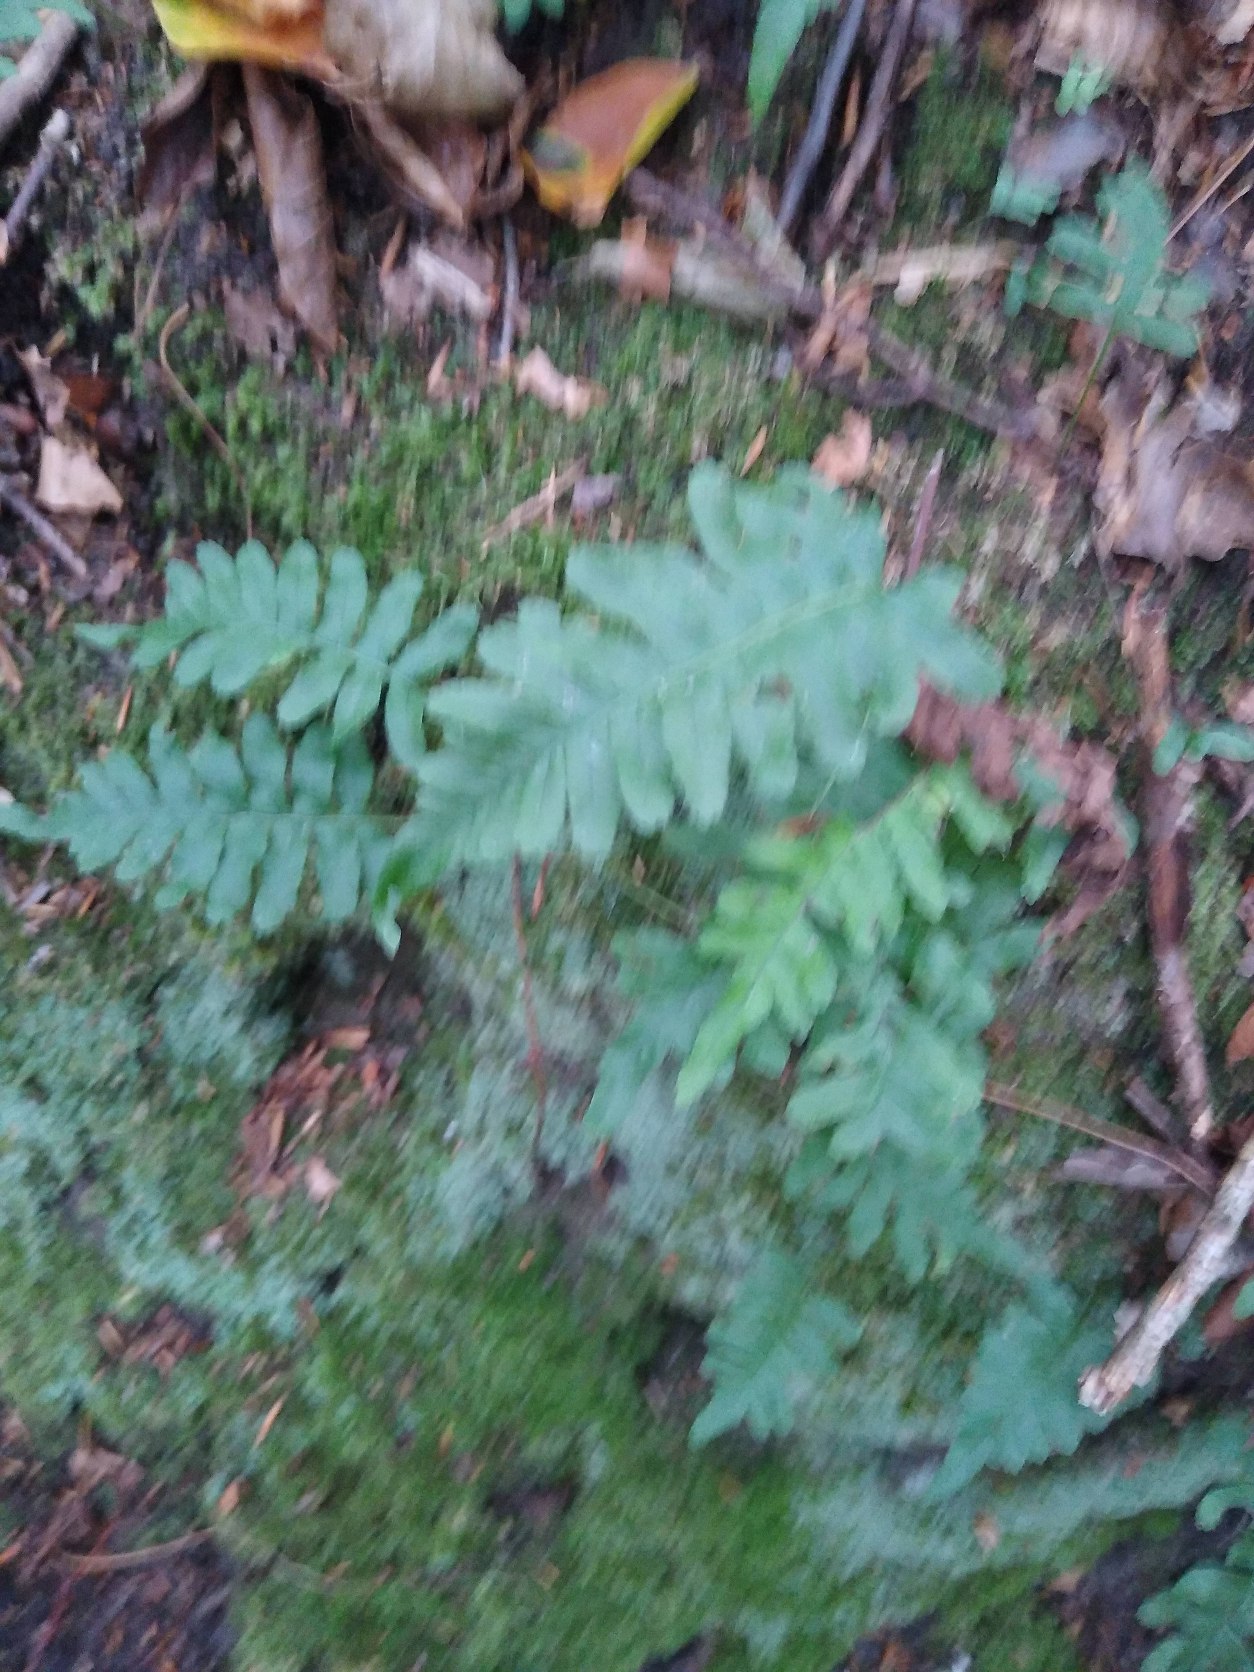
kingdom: Plantae
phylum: Tracheophyta
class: Polypodiopsida
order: Polypodiales
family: Polypodiaceae
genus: Polypodium
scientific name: Polypodium vulgare
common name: Almindelig engelsød
